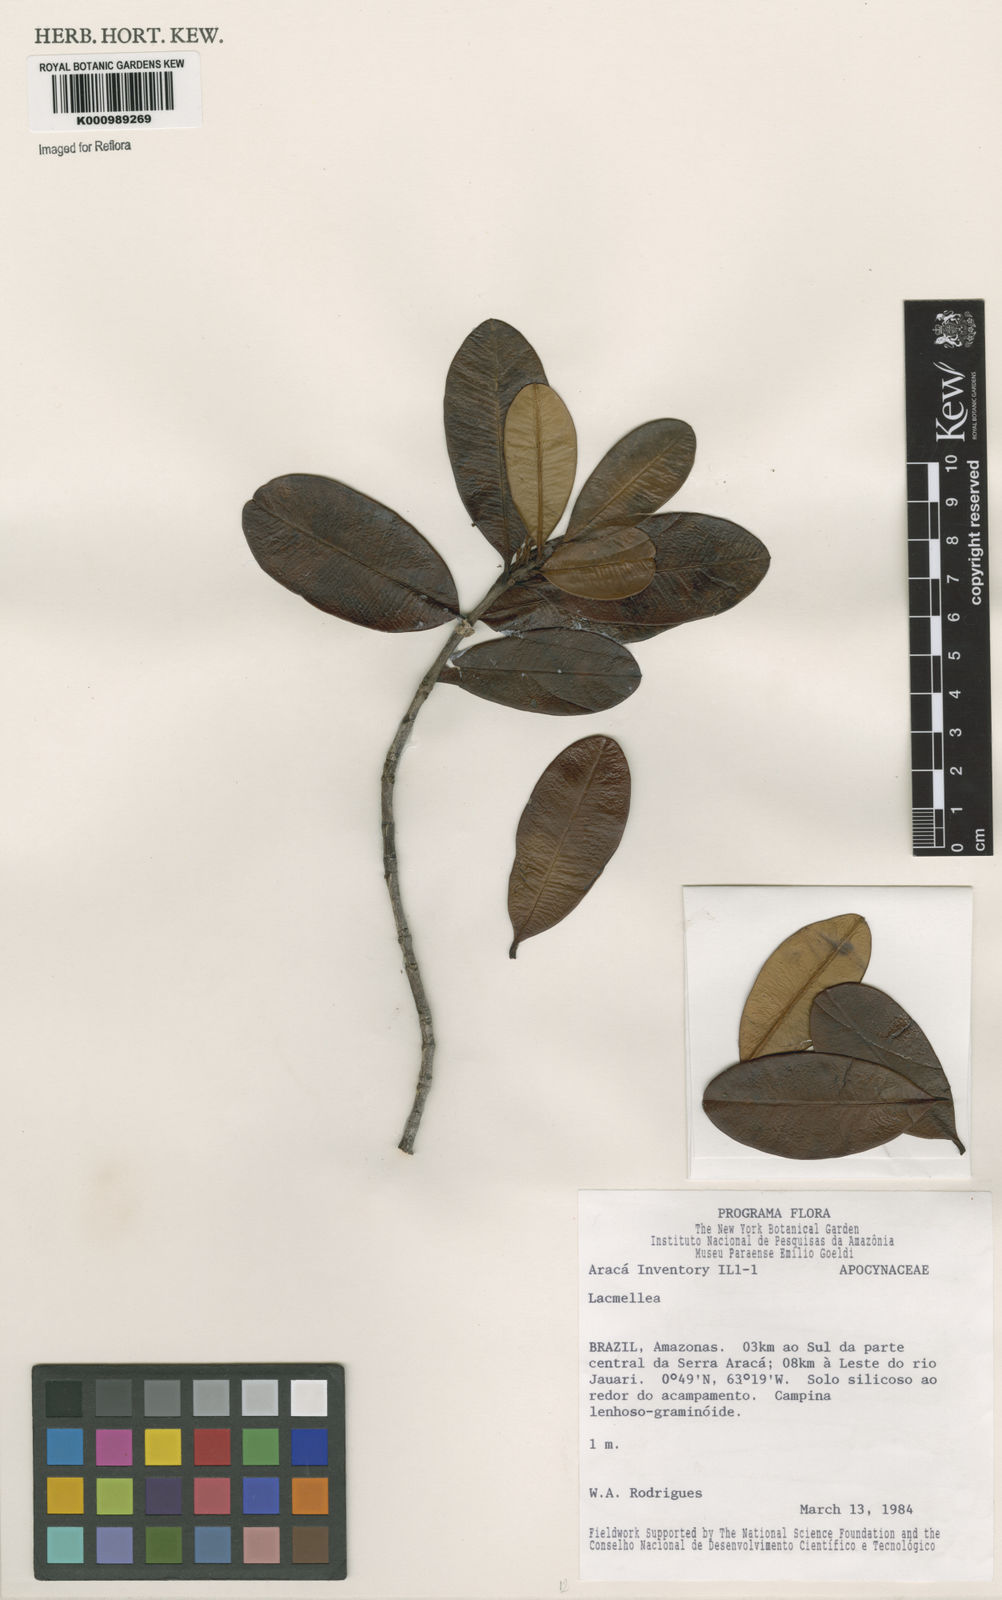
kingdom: Plantae
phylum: Tracheophyta
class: Magnoliopsida
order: Gentianales
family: Apocynaceae
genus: Lacmellea
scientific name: Lacmellea
